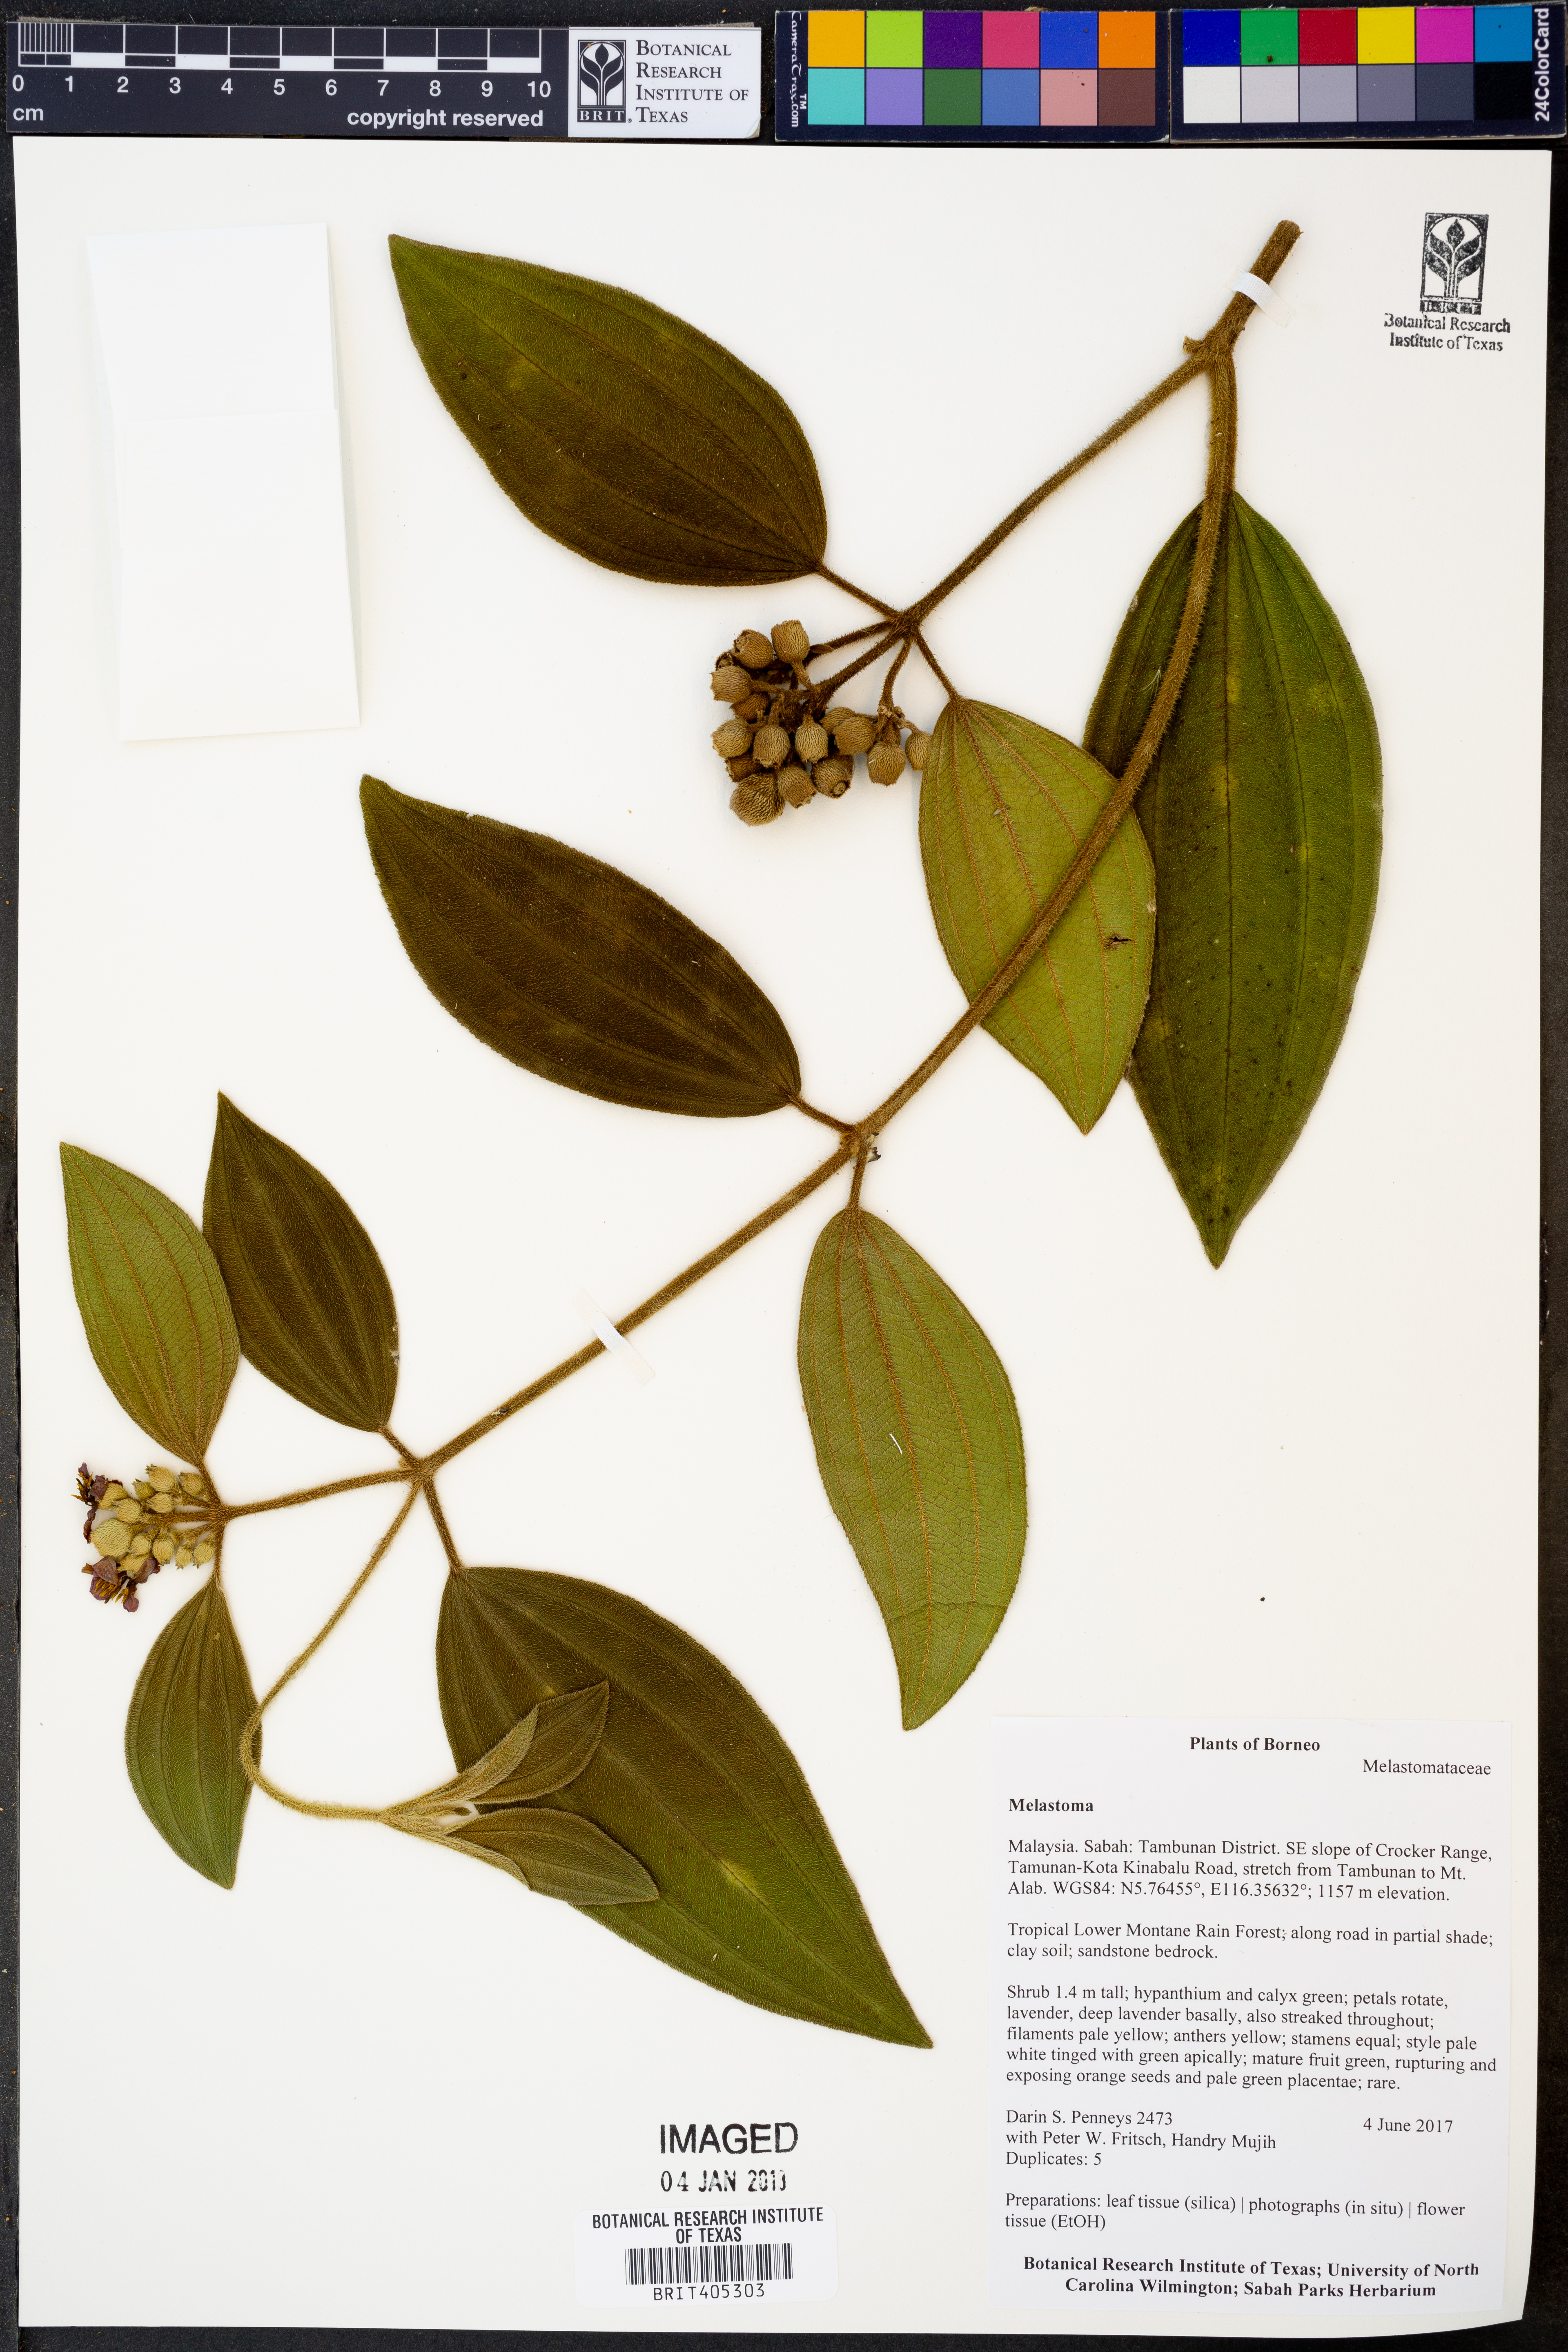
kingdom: Plantae
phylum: Tracheophyta
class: Magnoliopsida
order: Myrtales
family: Melastomataceae
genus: Melastoma
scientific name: Melastoma
